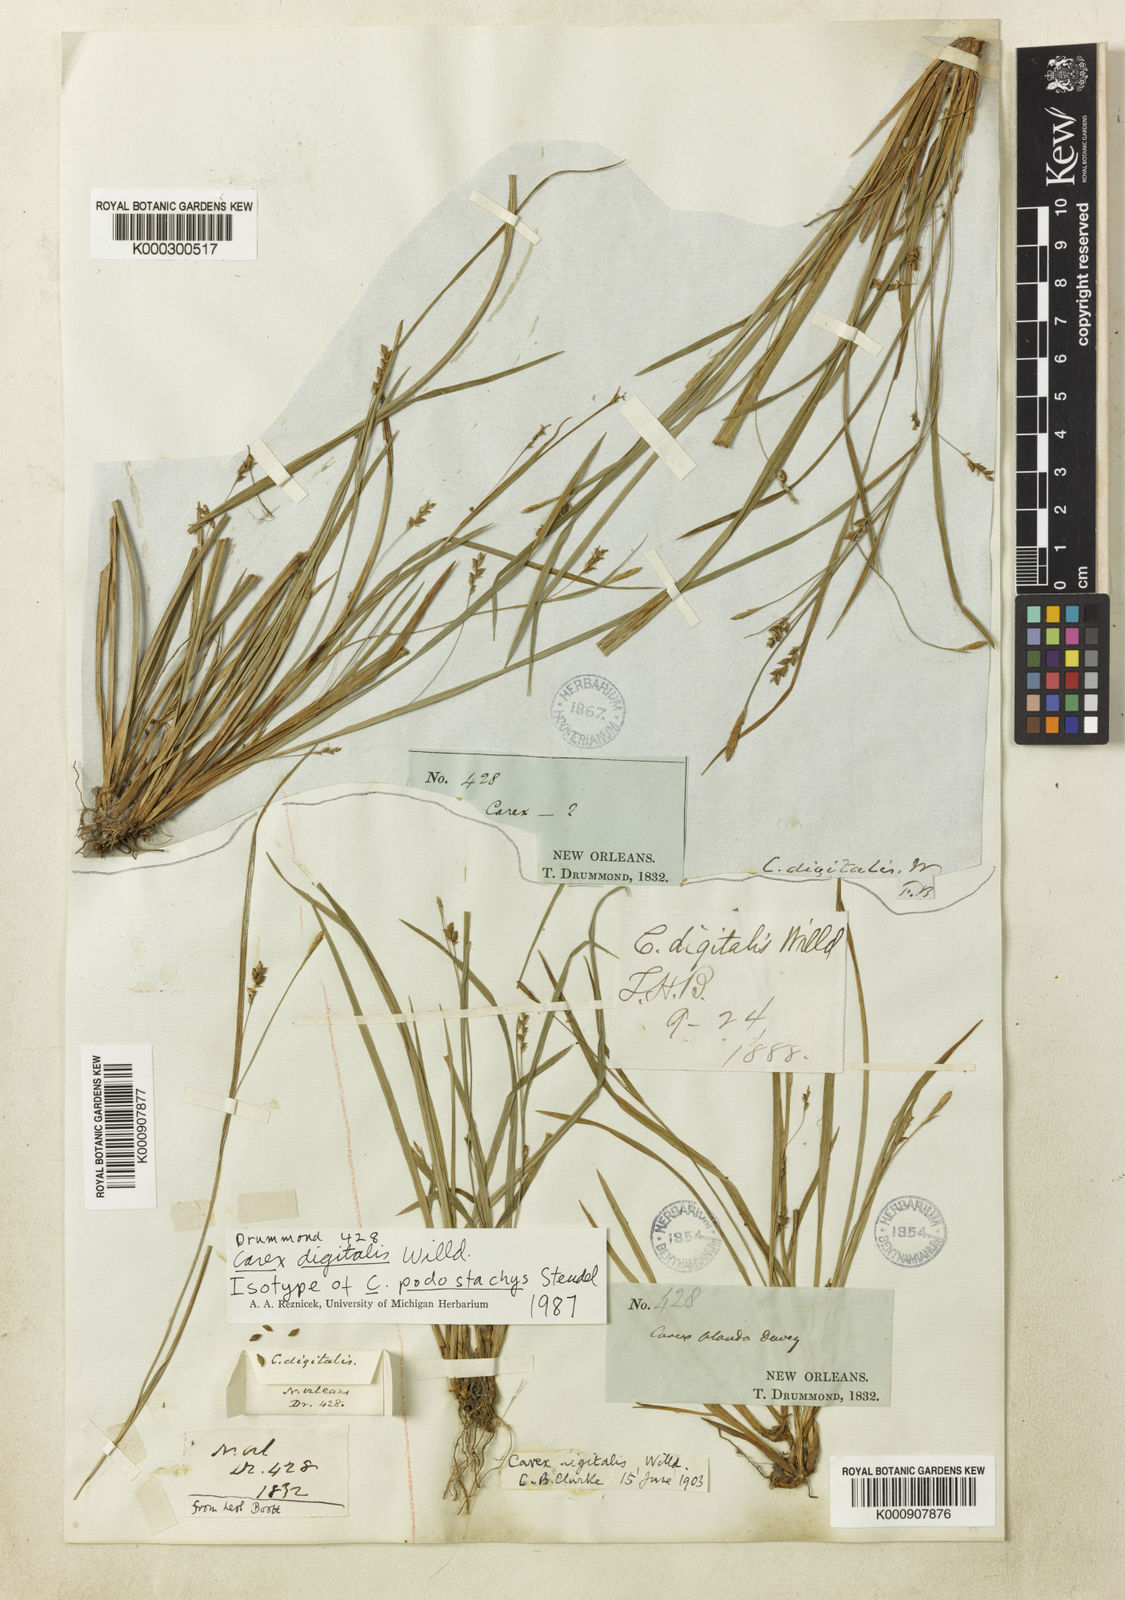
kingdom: Plantae
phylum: Tracheophyta
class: Liliopsida
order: Poales
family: Cyperaceae
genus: Carex
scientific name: Carex digitalis
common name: Slender wood sedge
